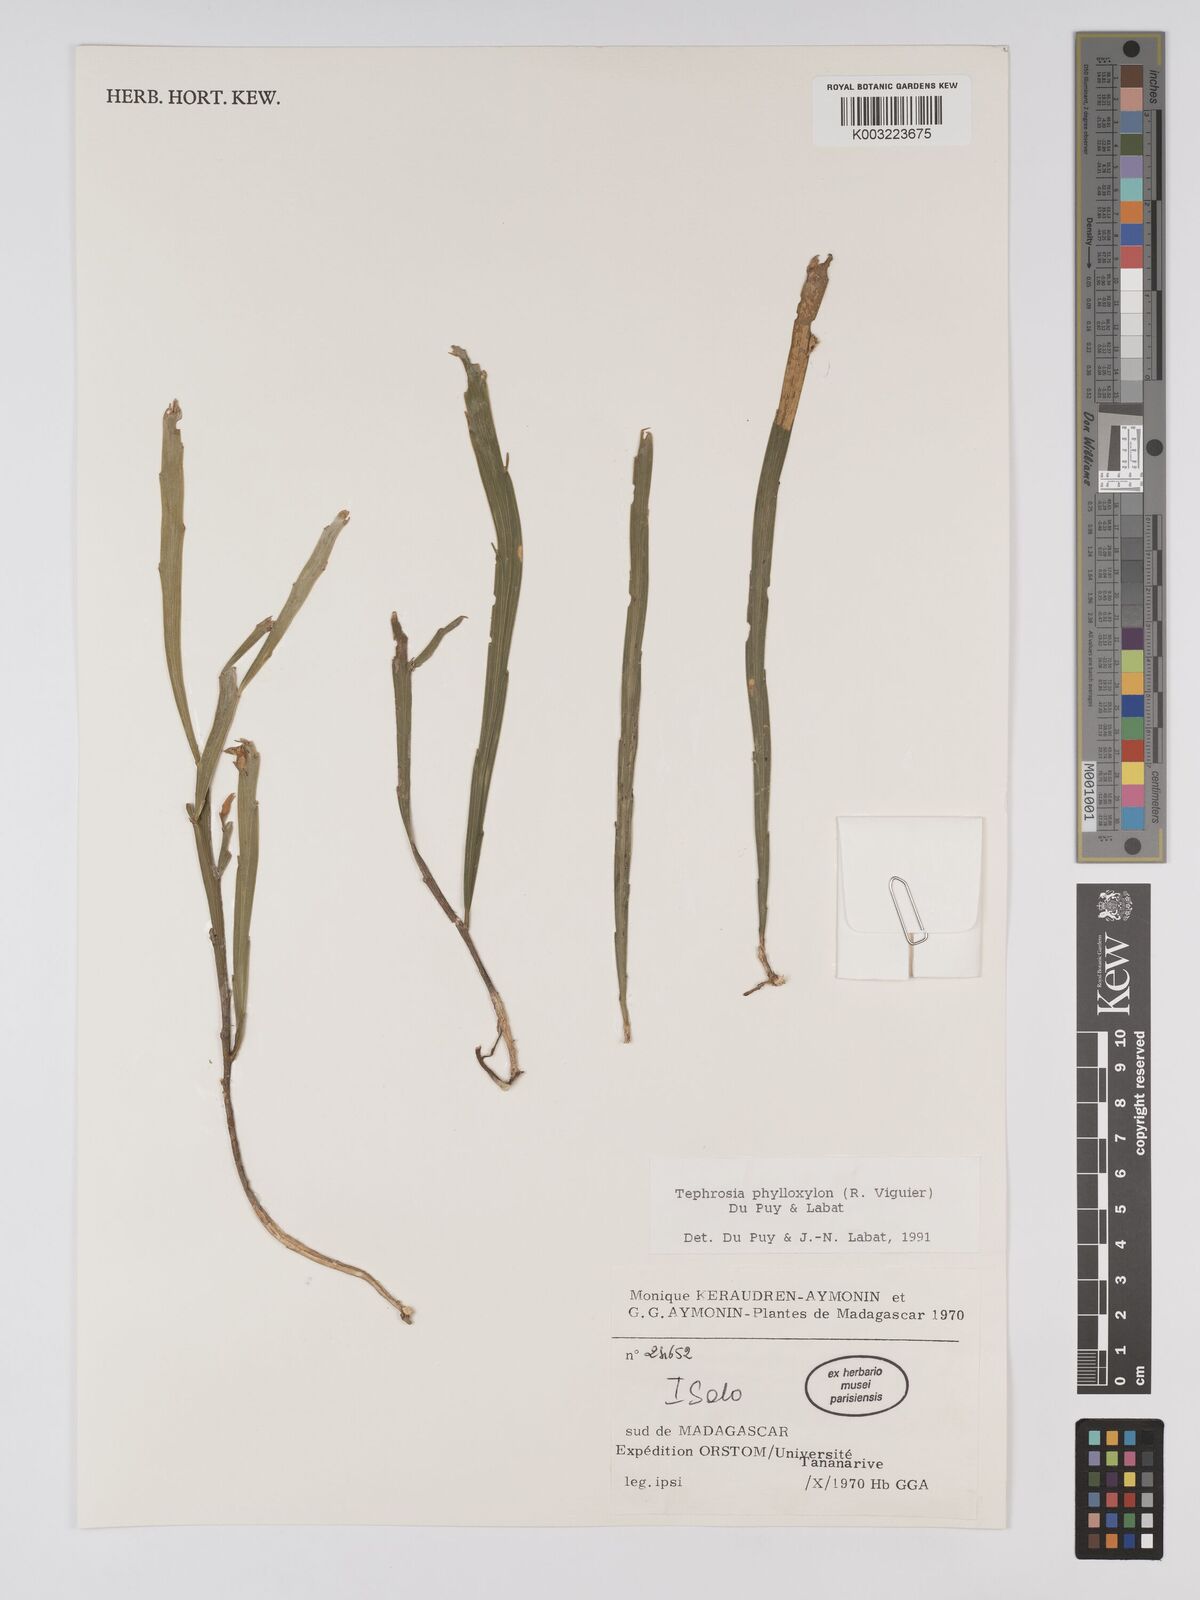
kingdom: Plantae
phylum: Tracheophyta
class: Magnoliopsida
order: Fabales
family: Fabaceae
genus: Tephrosia
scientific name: Tephrosia phylloxylon
